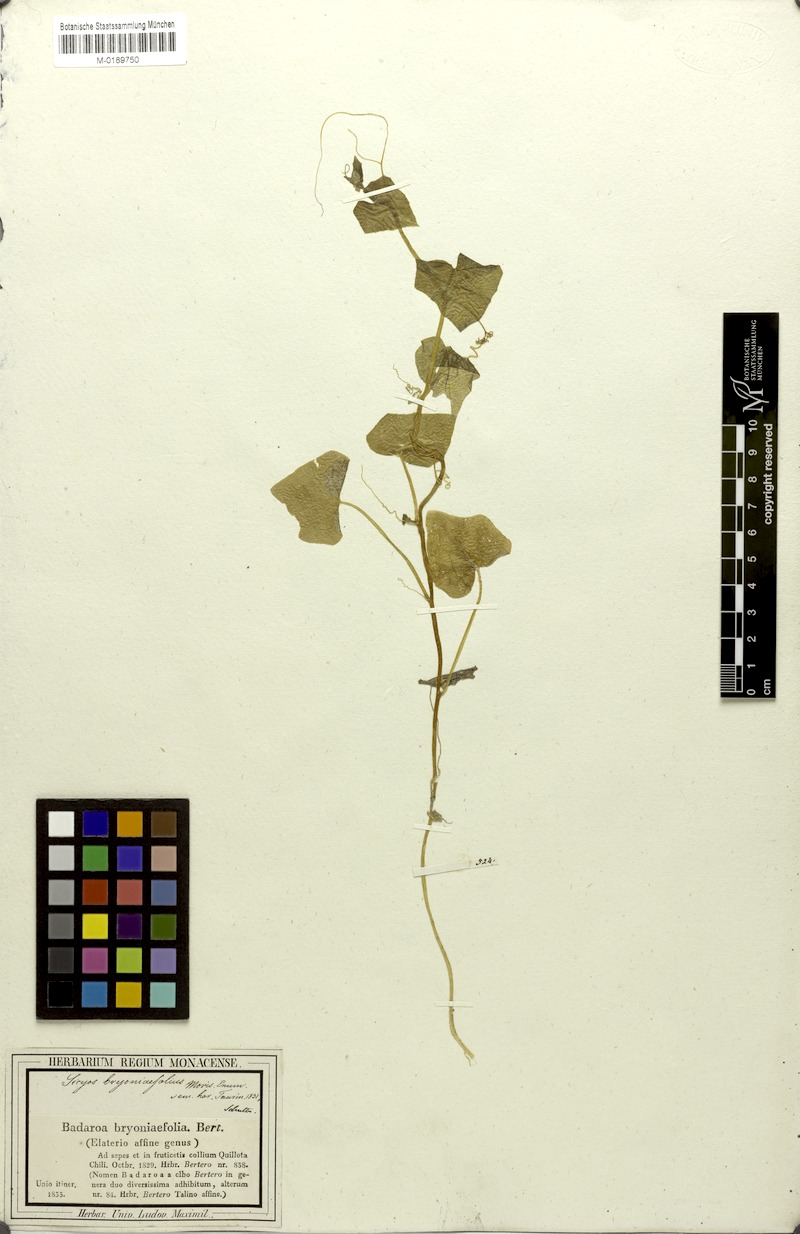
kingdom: Plantae
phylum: Tracheophyta
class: Magnoliopsida
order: Cucurbitales
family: Cucurbitaceae
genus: Sicyos
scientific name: Sicyos baderoa
